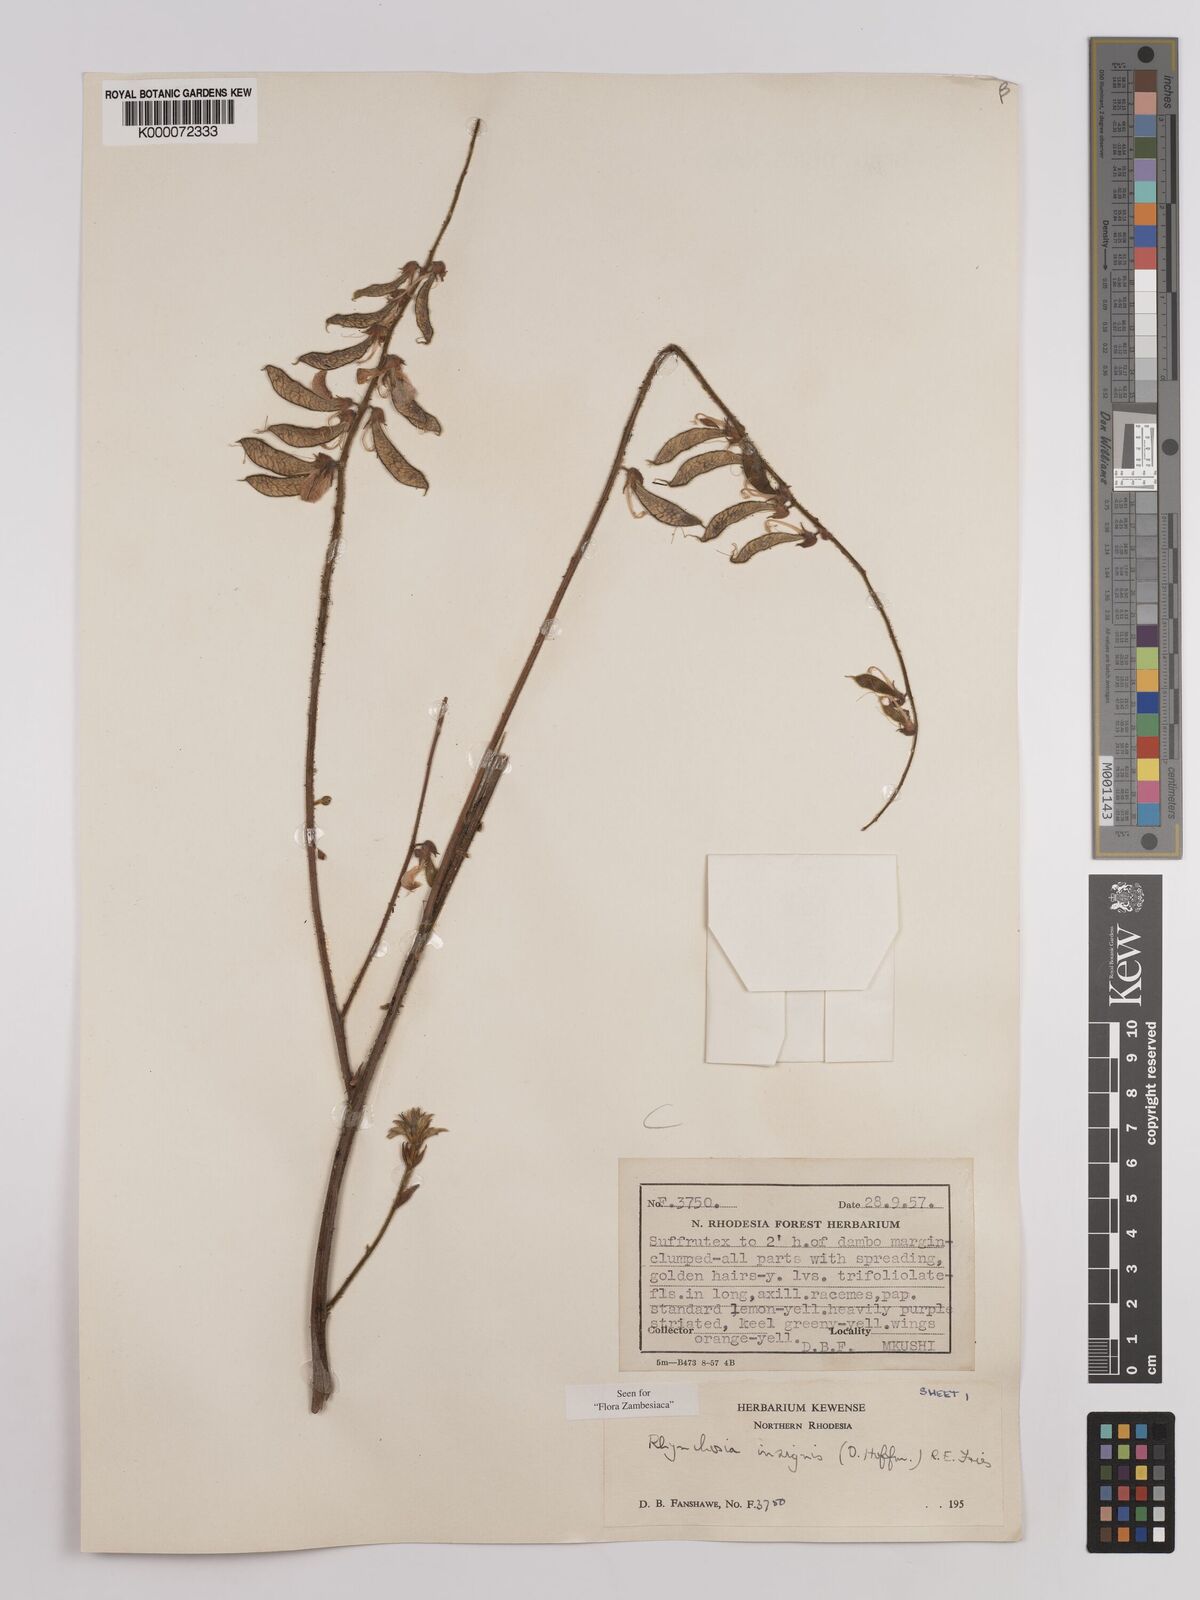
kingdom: Plantae
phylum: Tracheophyta
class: Magnoliopsida
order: Fabales
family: Fabaceae
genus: Rhynchosia
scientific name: Rhynchosia insignis
